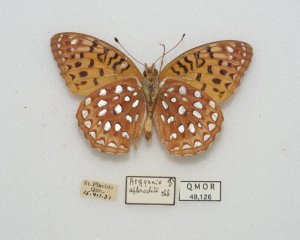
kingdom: Animalia
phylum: Arthropoda
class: Insecta
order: Lepidoptera
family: Nymphalidae
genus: Speyeria
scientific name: Speyeria aphrodite
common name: Aphrodite Fritillary
